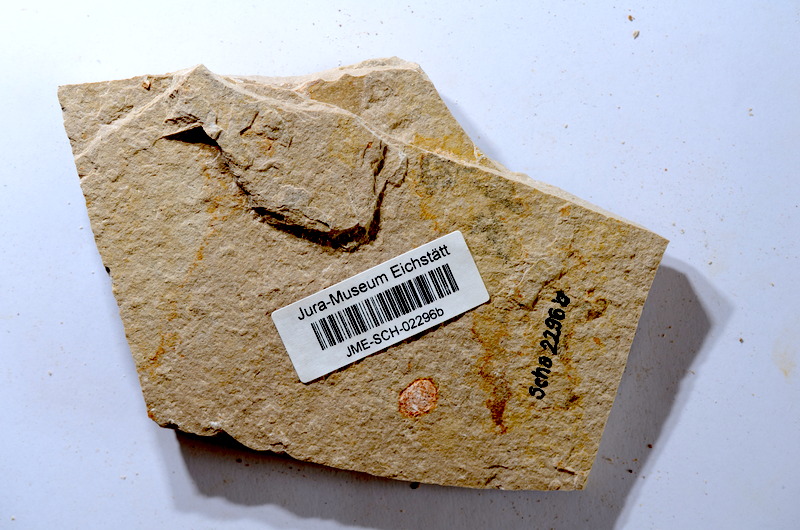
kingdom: Animalia
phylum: Chordata
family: Ascalaboidae
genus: Tharsis
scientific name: Tharsis dubius
